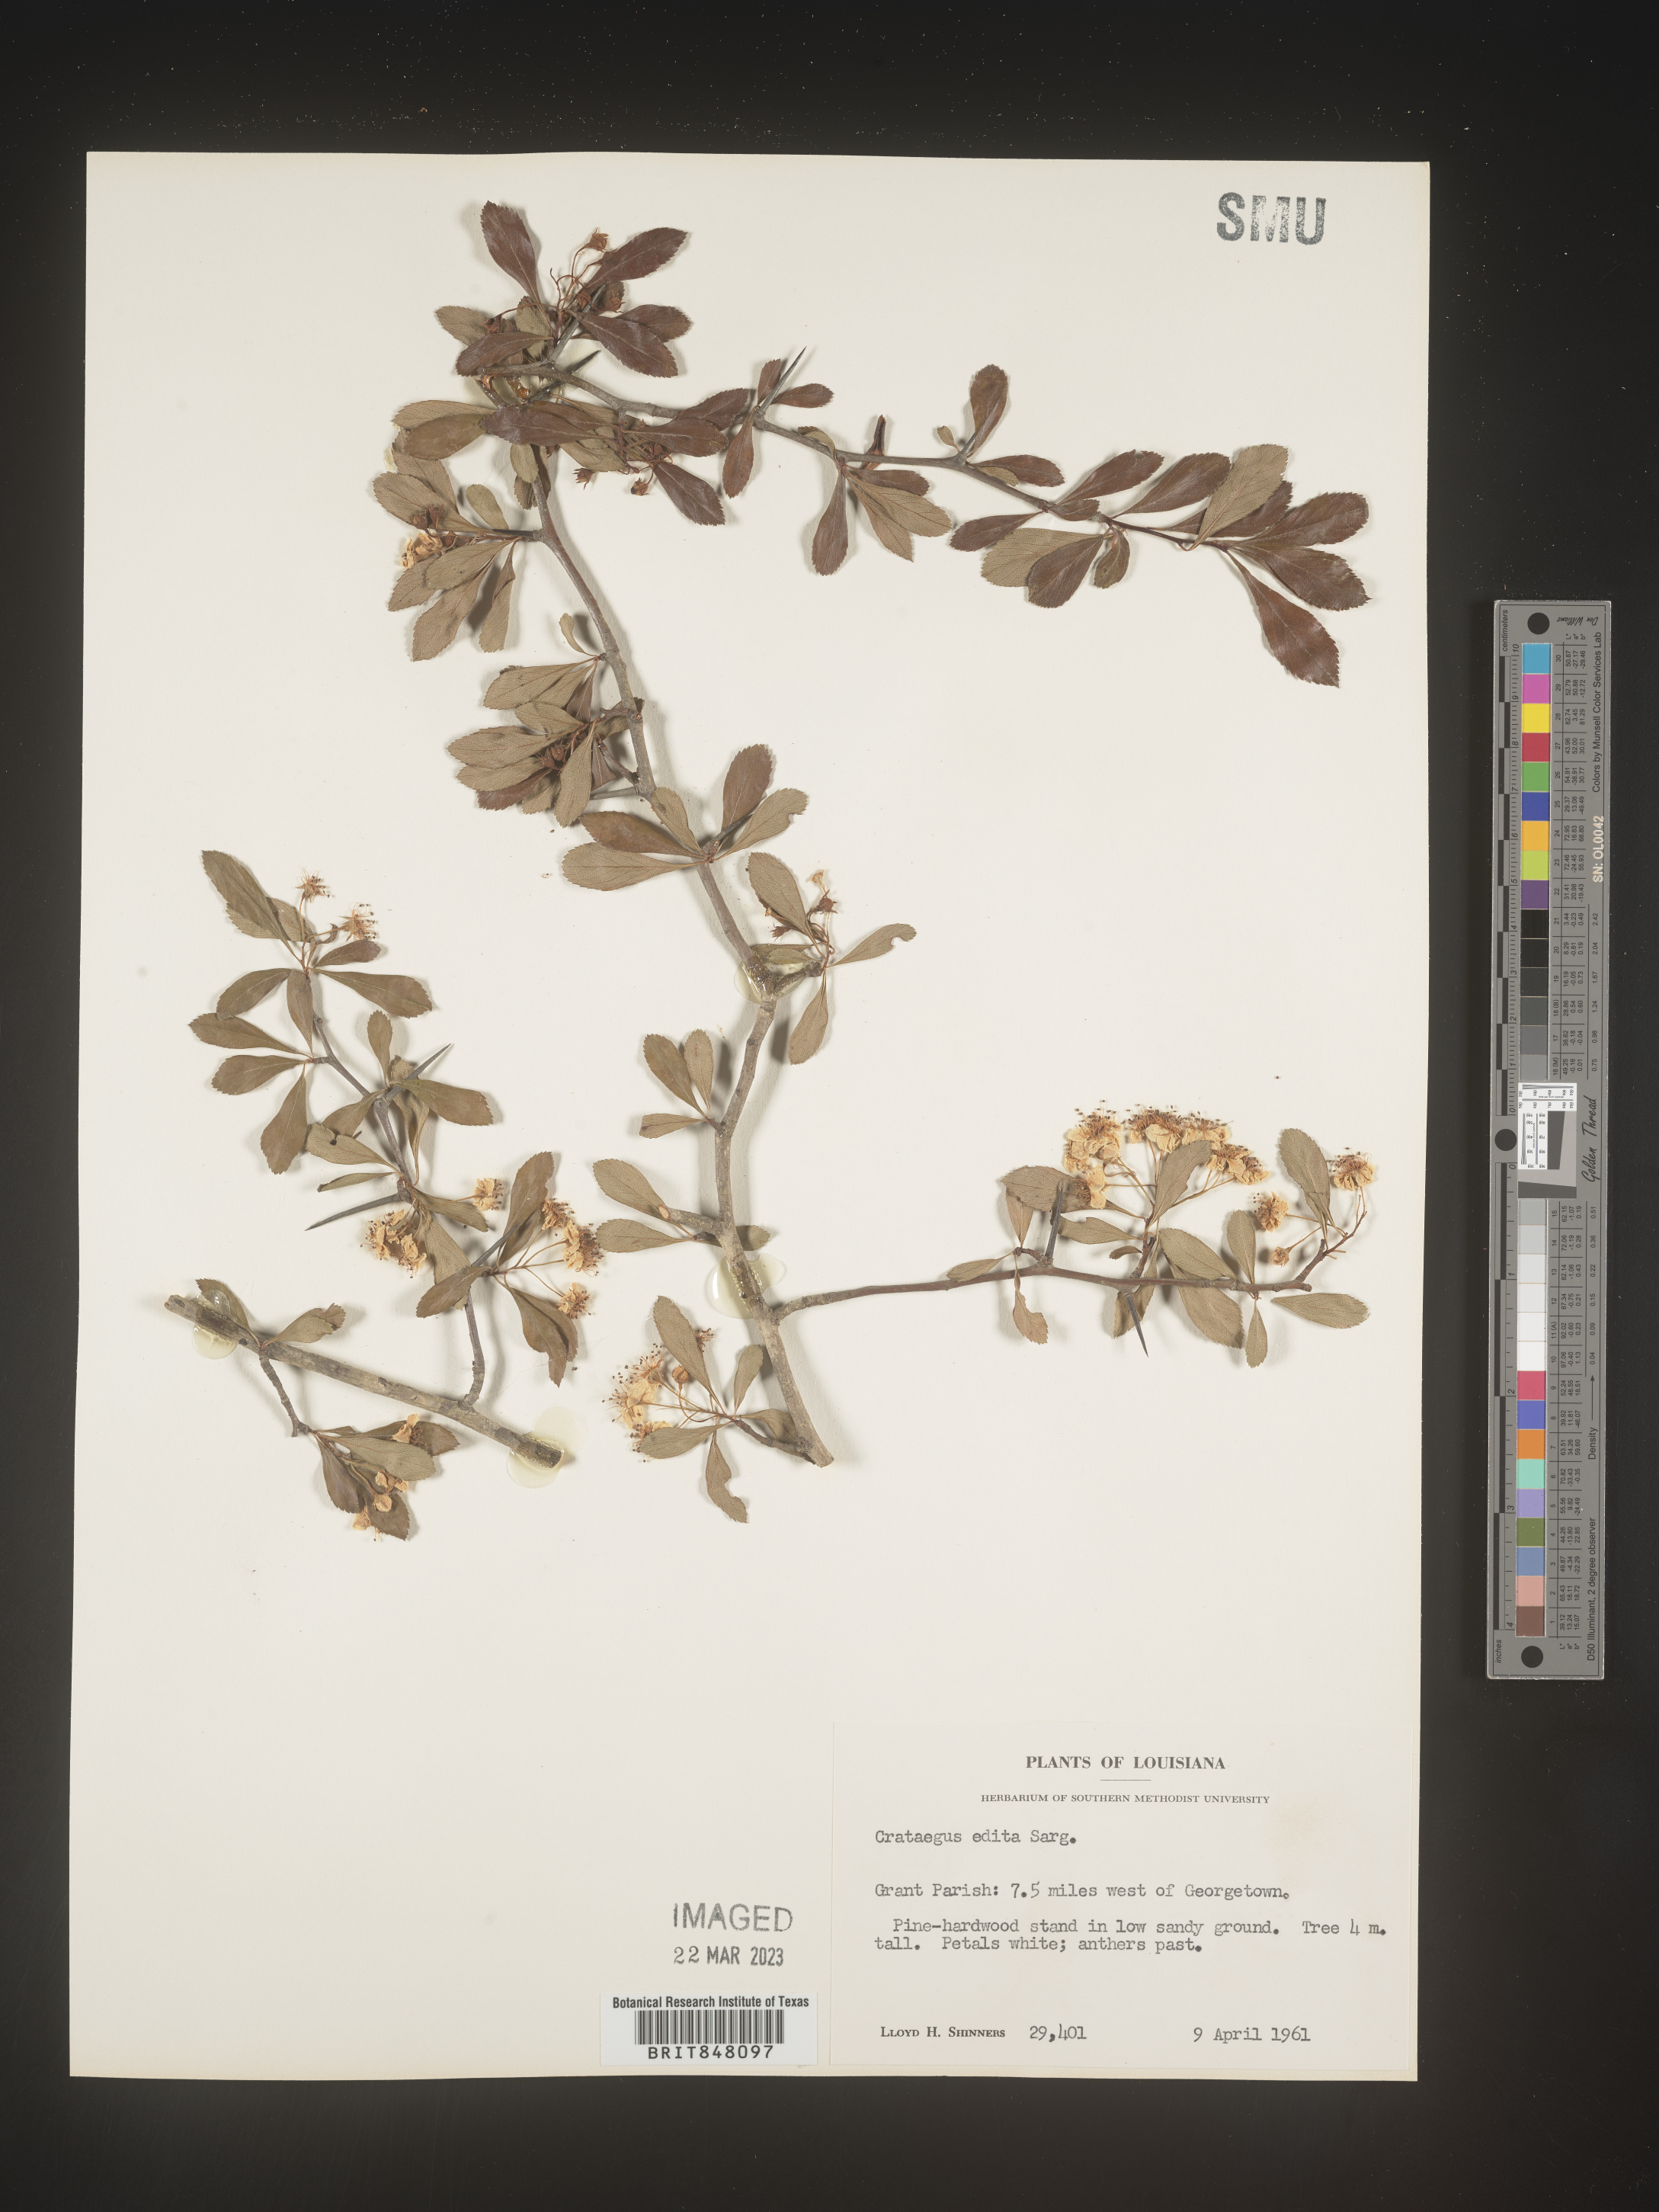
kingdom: Plantae
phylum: Tracheophyta
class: Magnoliopsida
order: Rosales
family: Rosaceae
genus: Crataegus
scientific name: Crataegus berberifolia
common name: Barberry hawthorn
